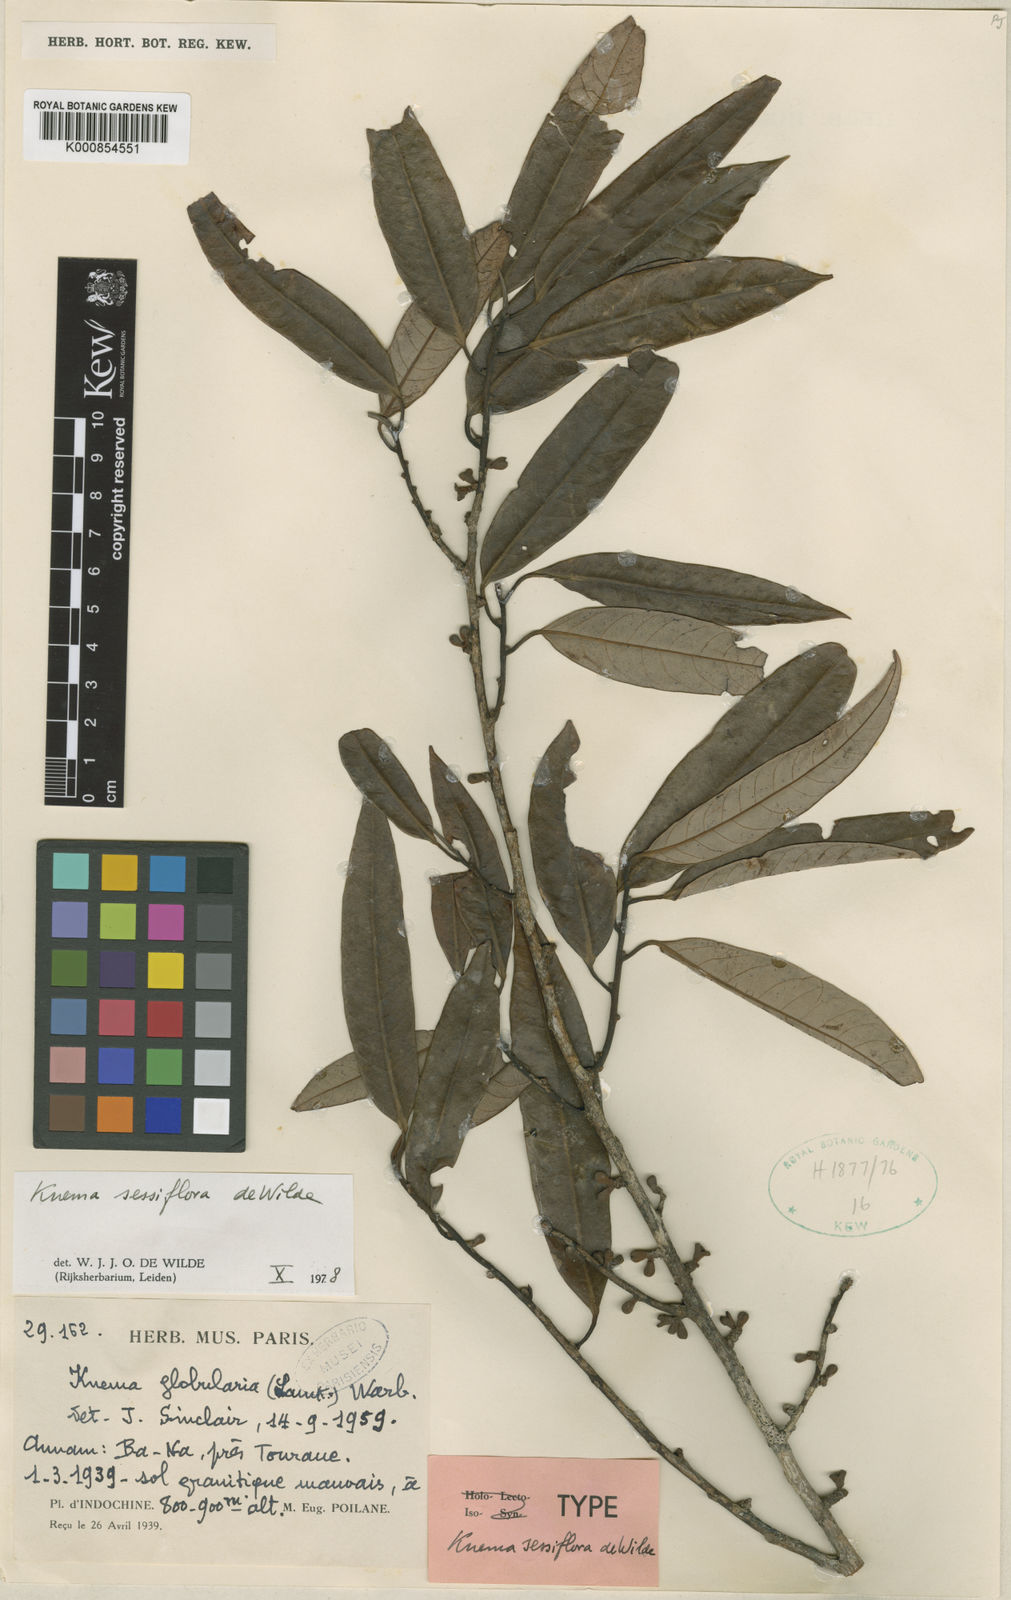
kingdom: Plantae
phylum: Tracheophyta
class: Magnoliopsida
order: Magnoliales
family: Myristicaceae
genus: Knema
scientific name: Knema sessiflora
